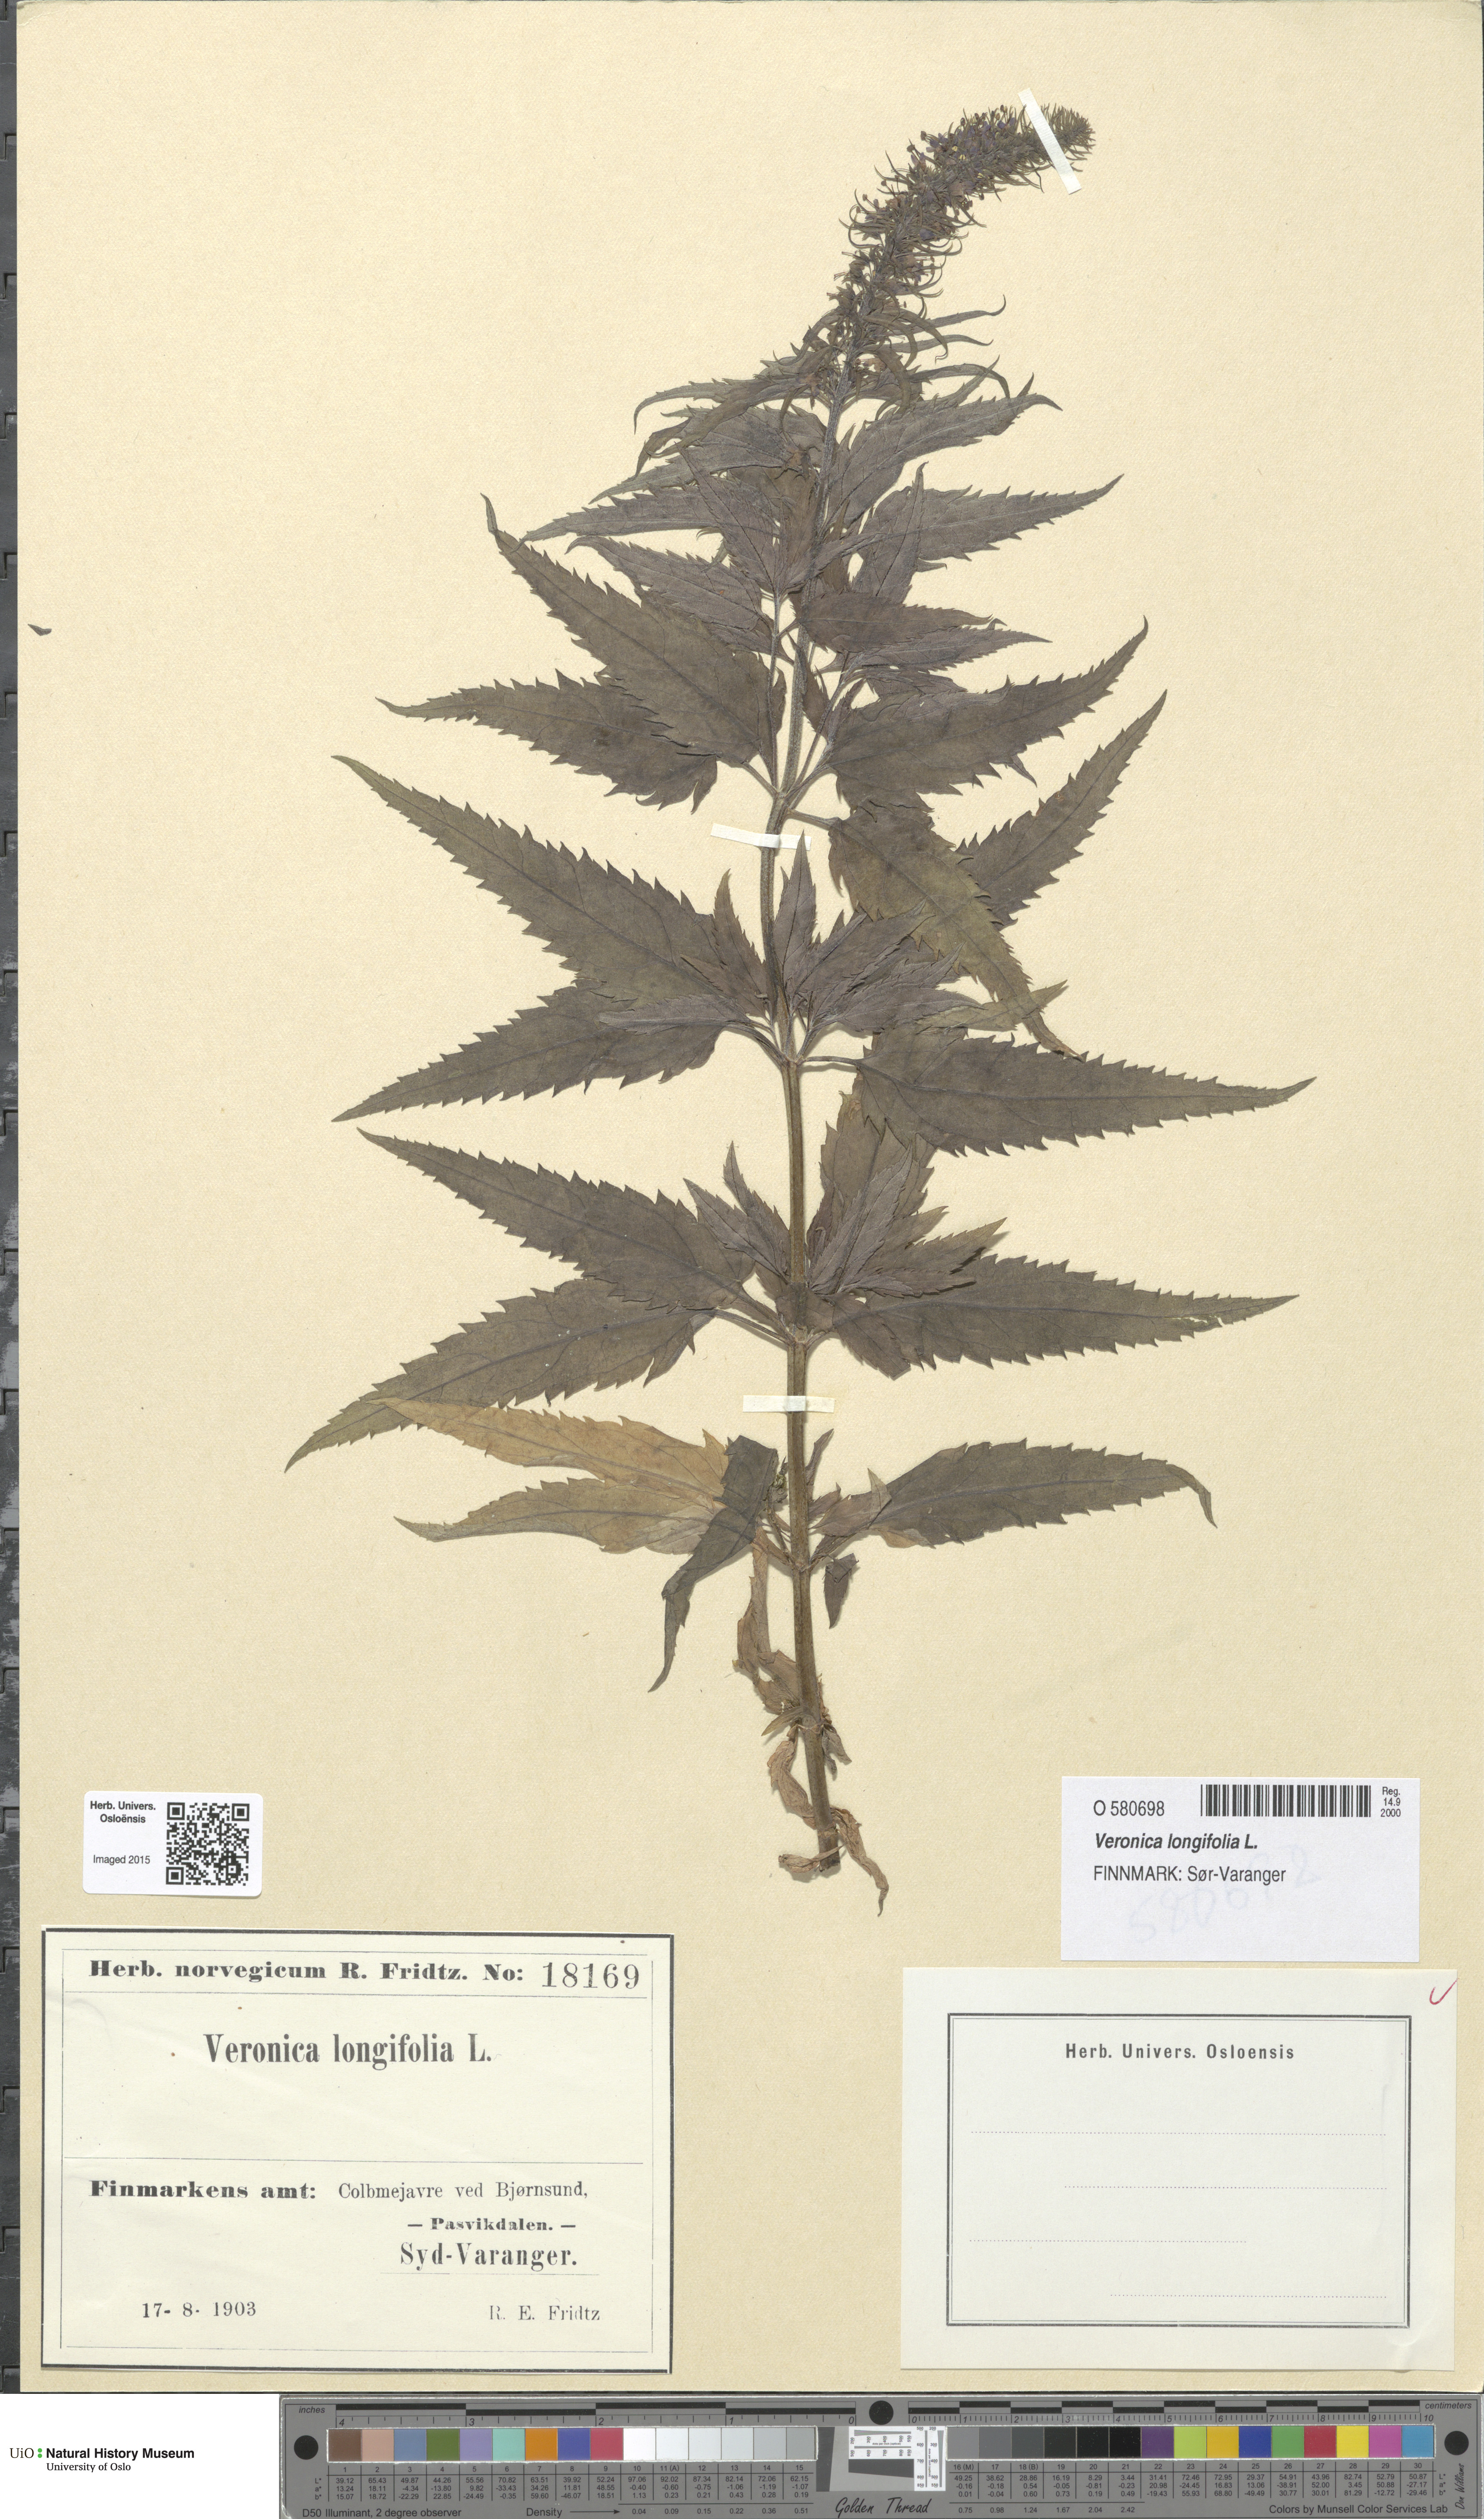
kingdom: Plantae
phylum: Tracheophyta
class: Magnoliopsida
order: Lamiales
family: Plantaginaceae
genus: Veronica
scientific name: Veronica longifolia
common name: Garden speedwell
